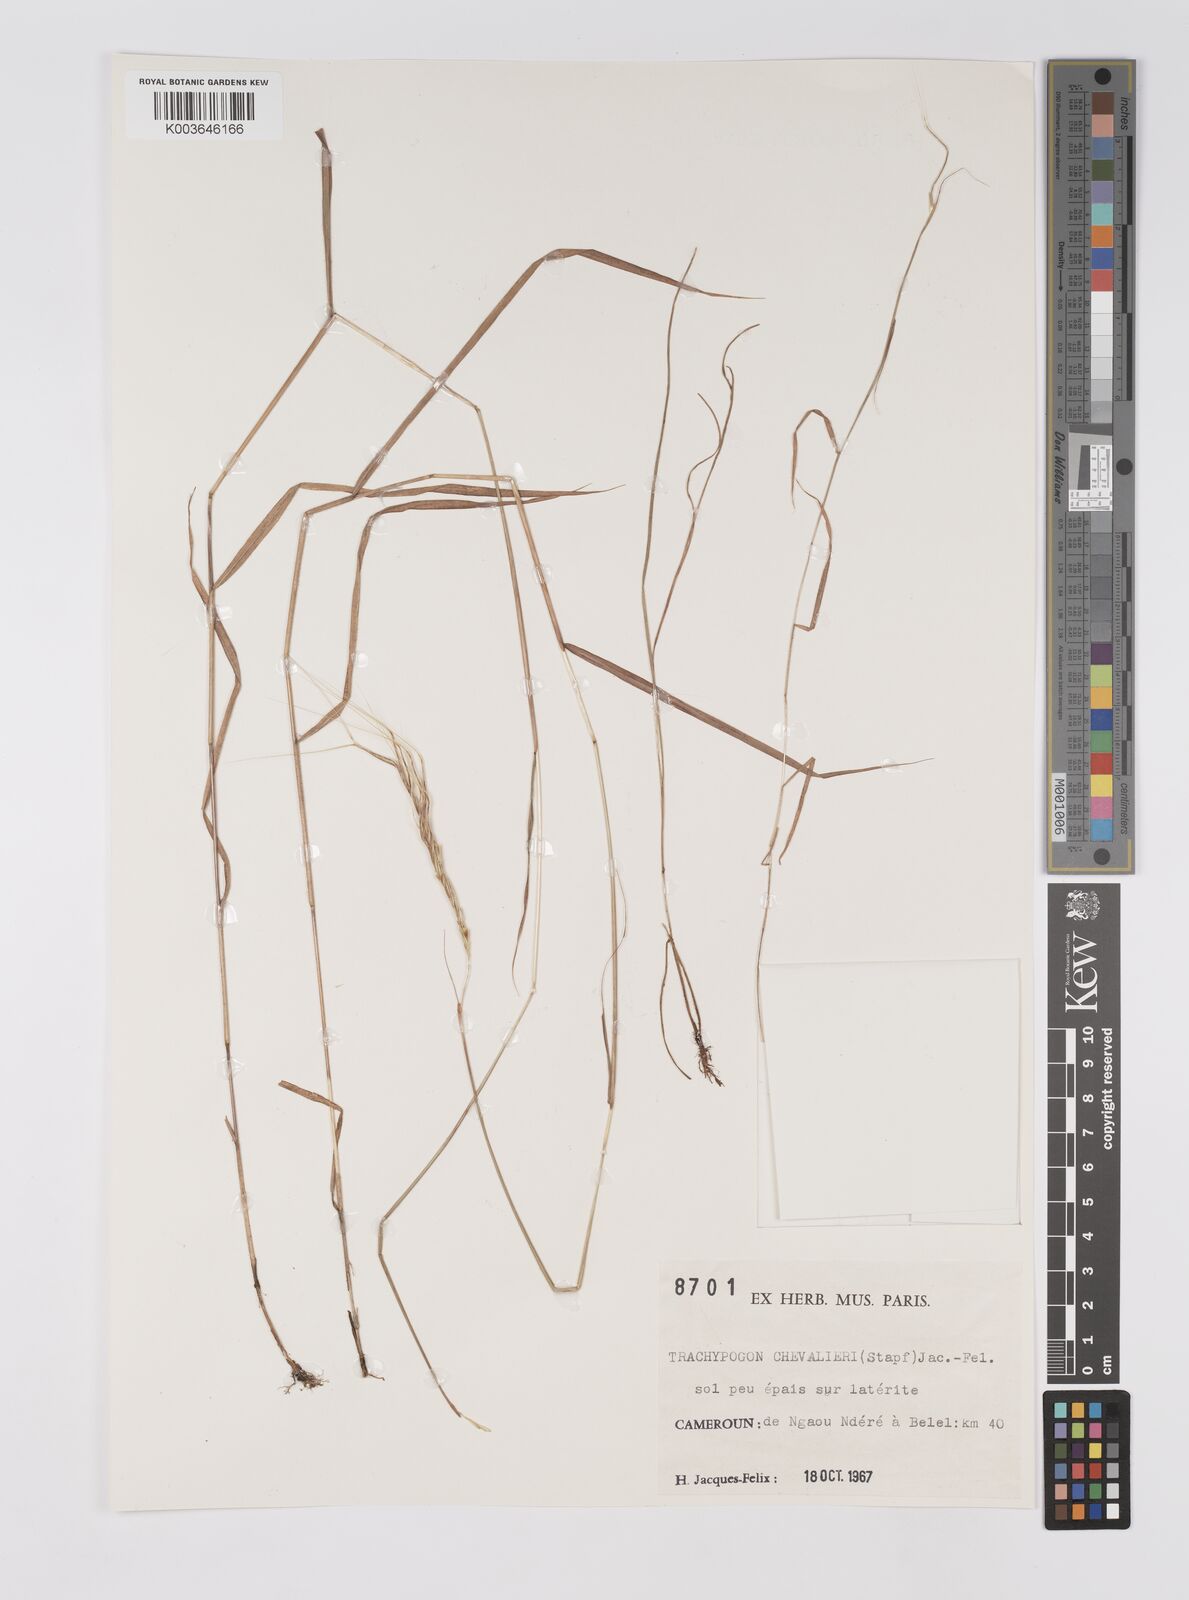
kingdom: Plantae
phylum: Tracheophyta
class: Liliopsida
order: Poales
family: Poaceae
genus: Trachypogon
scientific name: Trachypogon chevalieri
